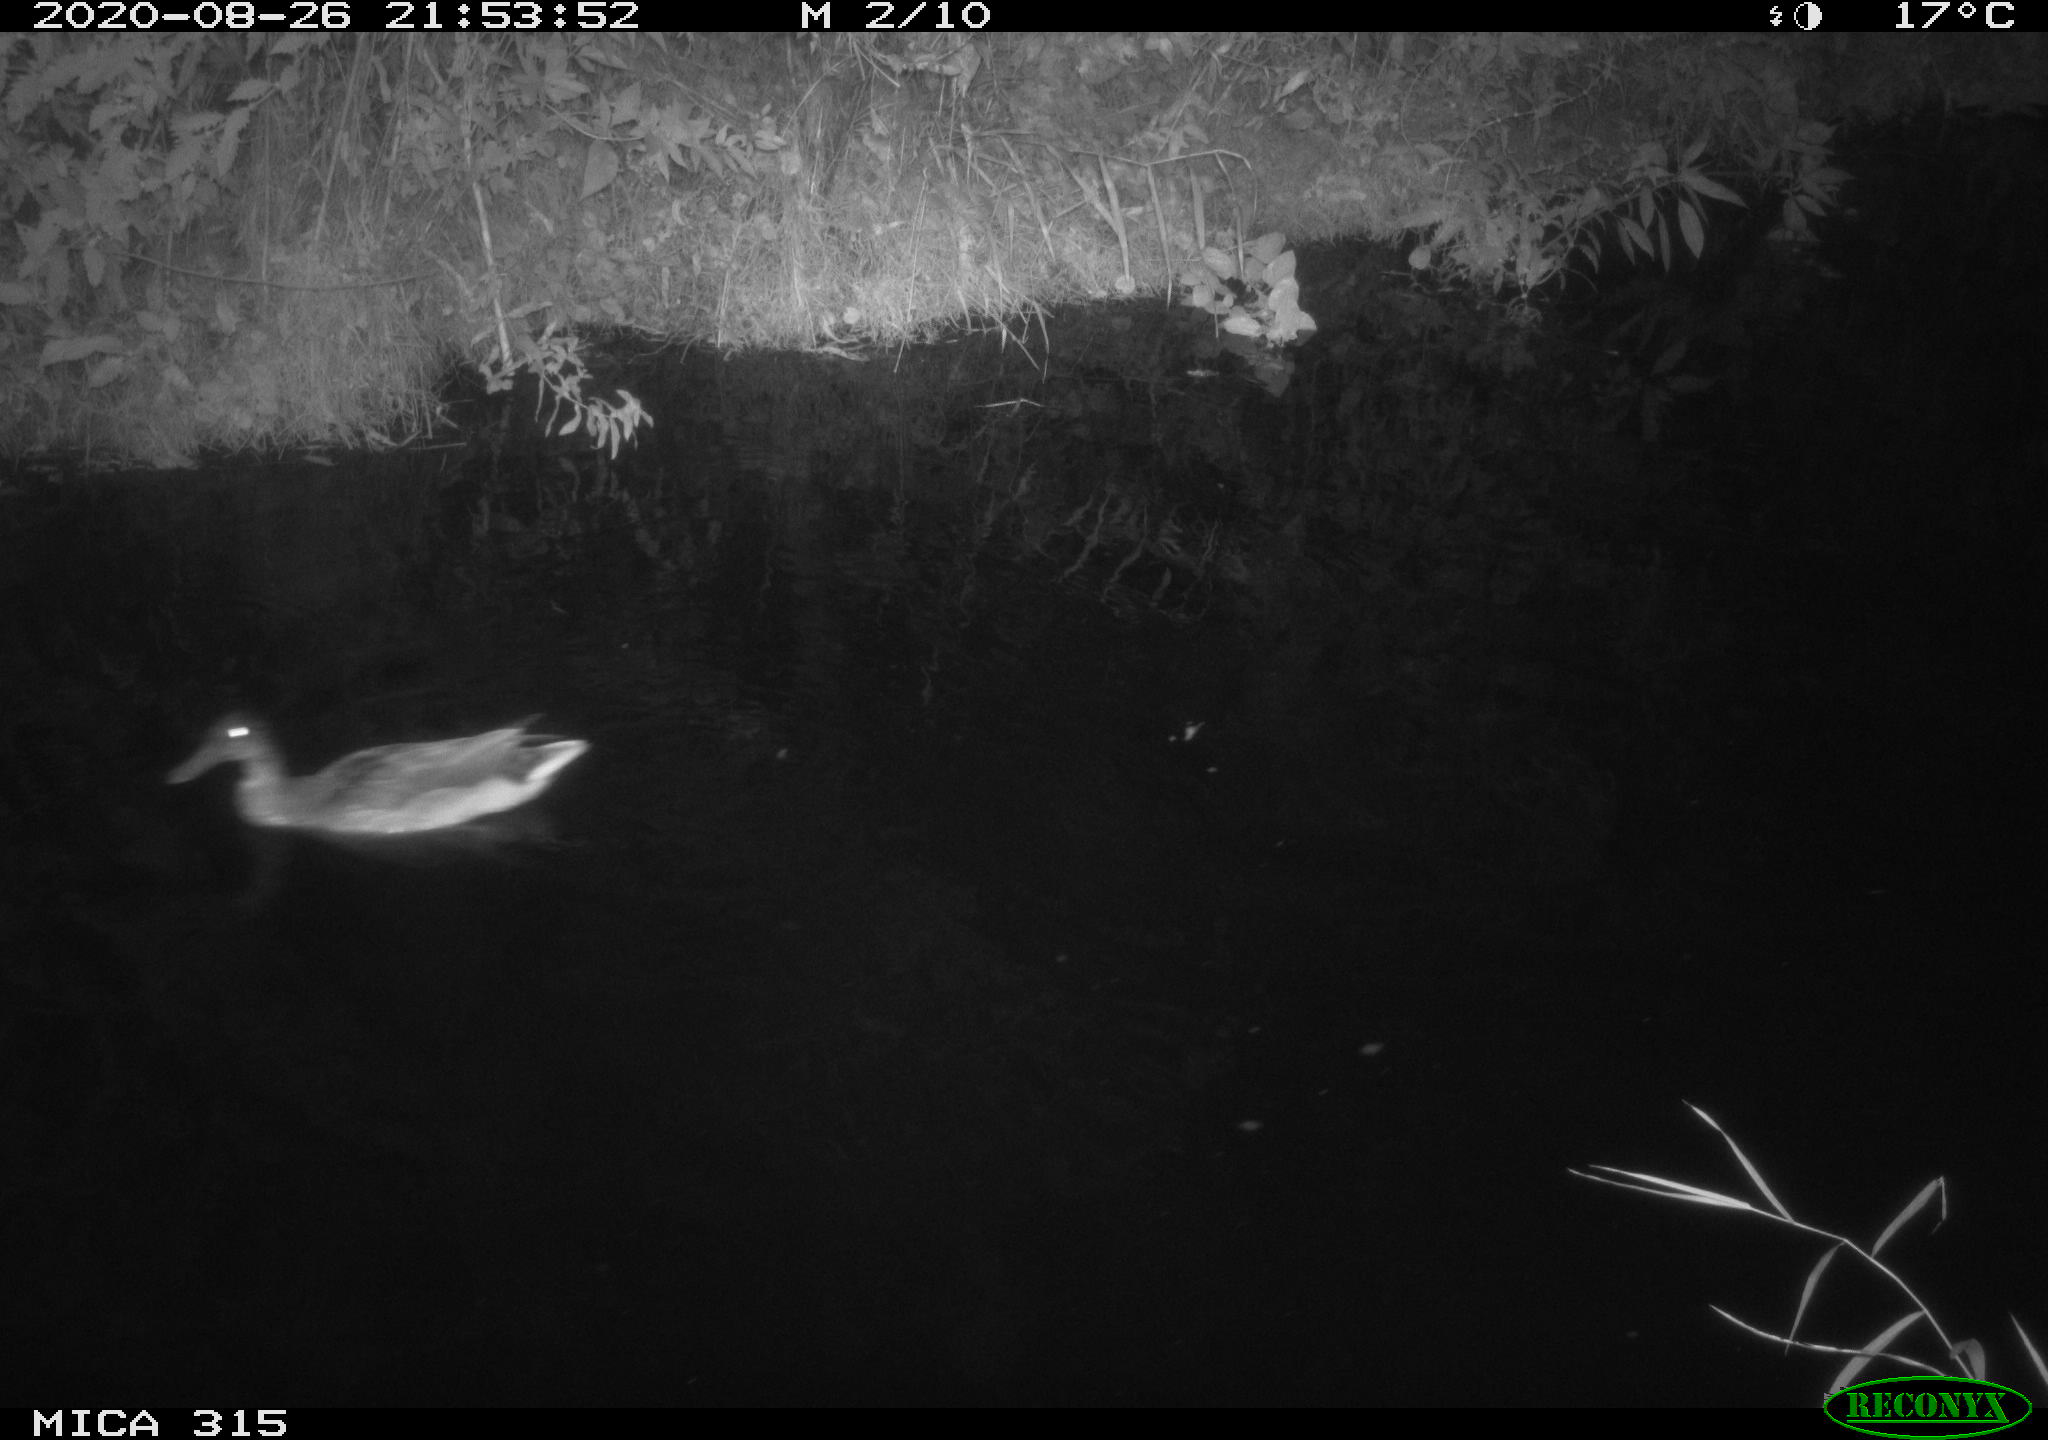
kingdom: Animalia
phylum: Chordata
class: Aves
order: Anseriformes
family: Anatidae
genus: Anas
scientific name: Anas platyrhynchos
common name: Mallard
